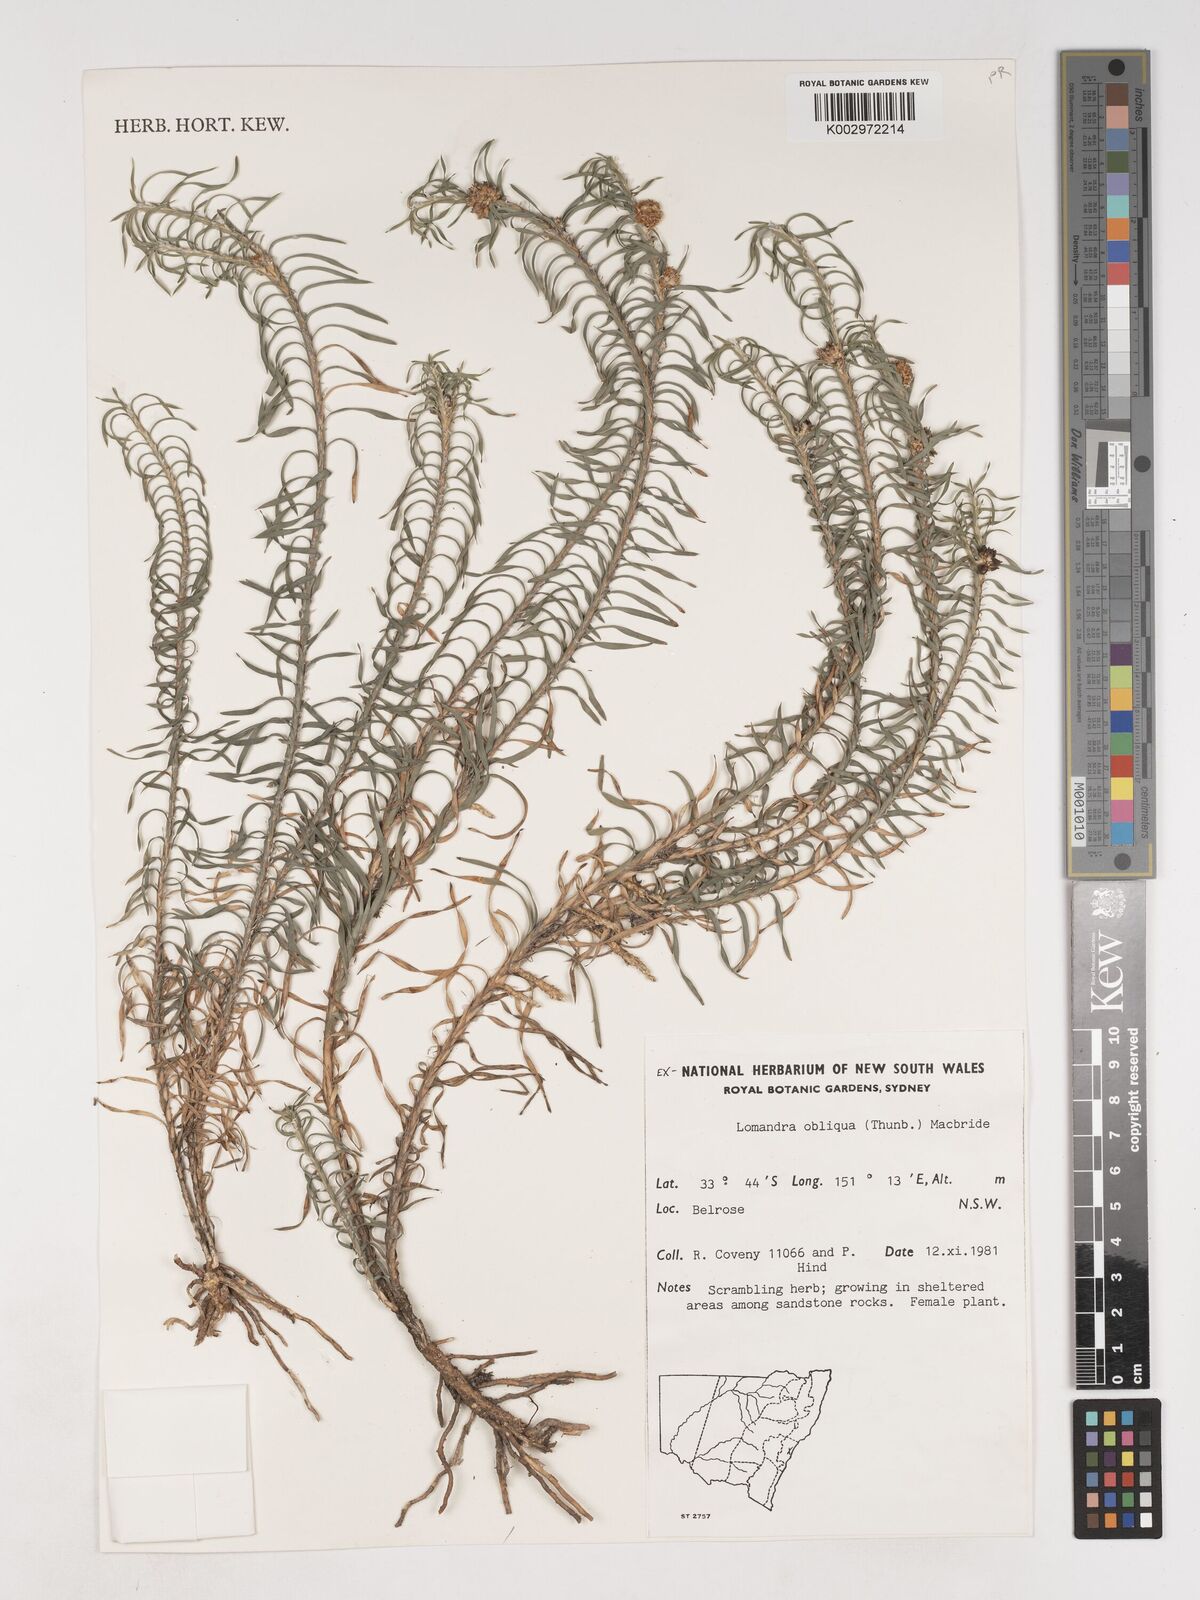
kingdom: Plantae
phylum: Tracheophyta
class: Liliopsida
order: Asparagales
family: Asparagaceae
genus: Lomandra
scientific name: Lomandra obliqua
